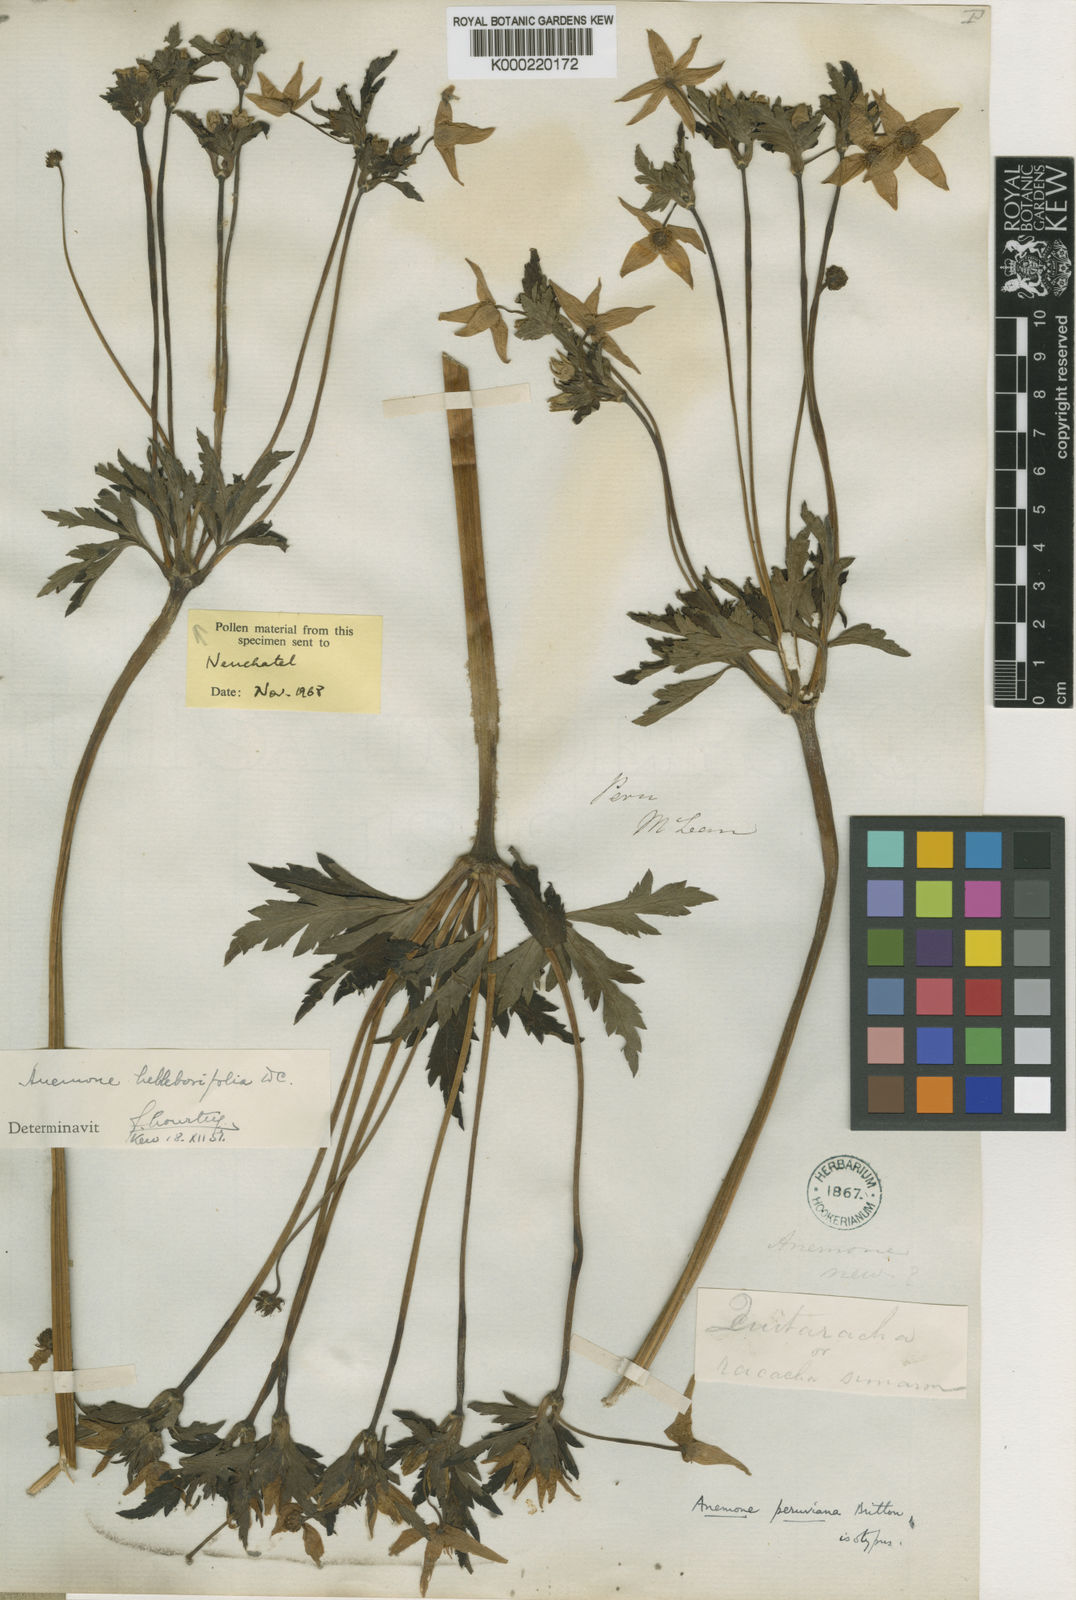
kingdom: Plantae
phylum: Tracheophyta
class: Magnoliopsida
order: Ranunculales
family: Ranunculaceae
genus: Knowltonia
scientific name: Knowltonia helleborifolia
